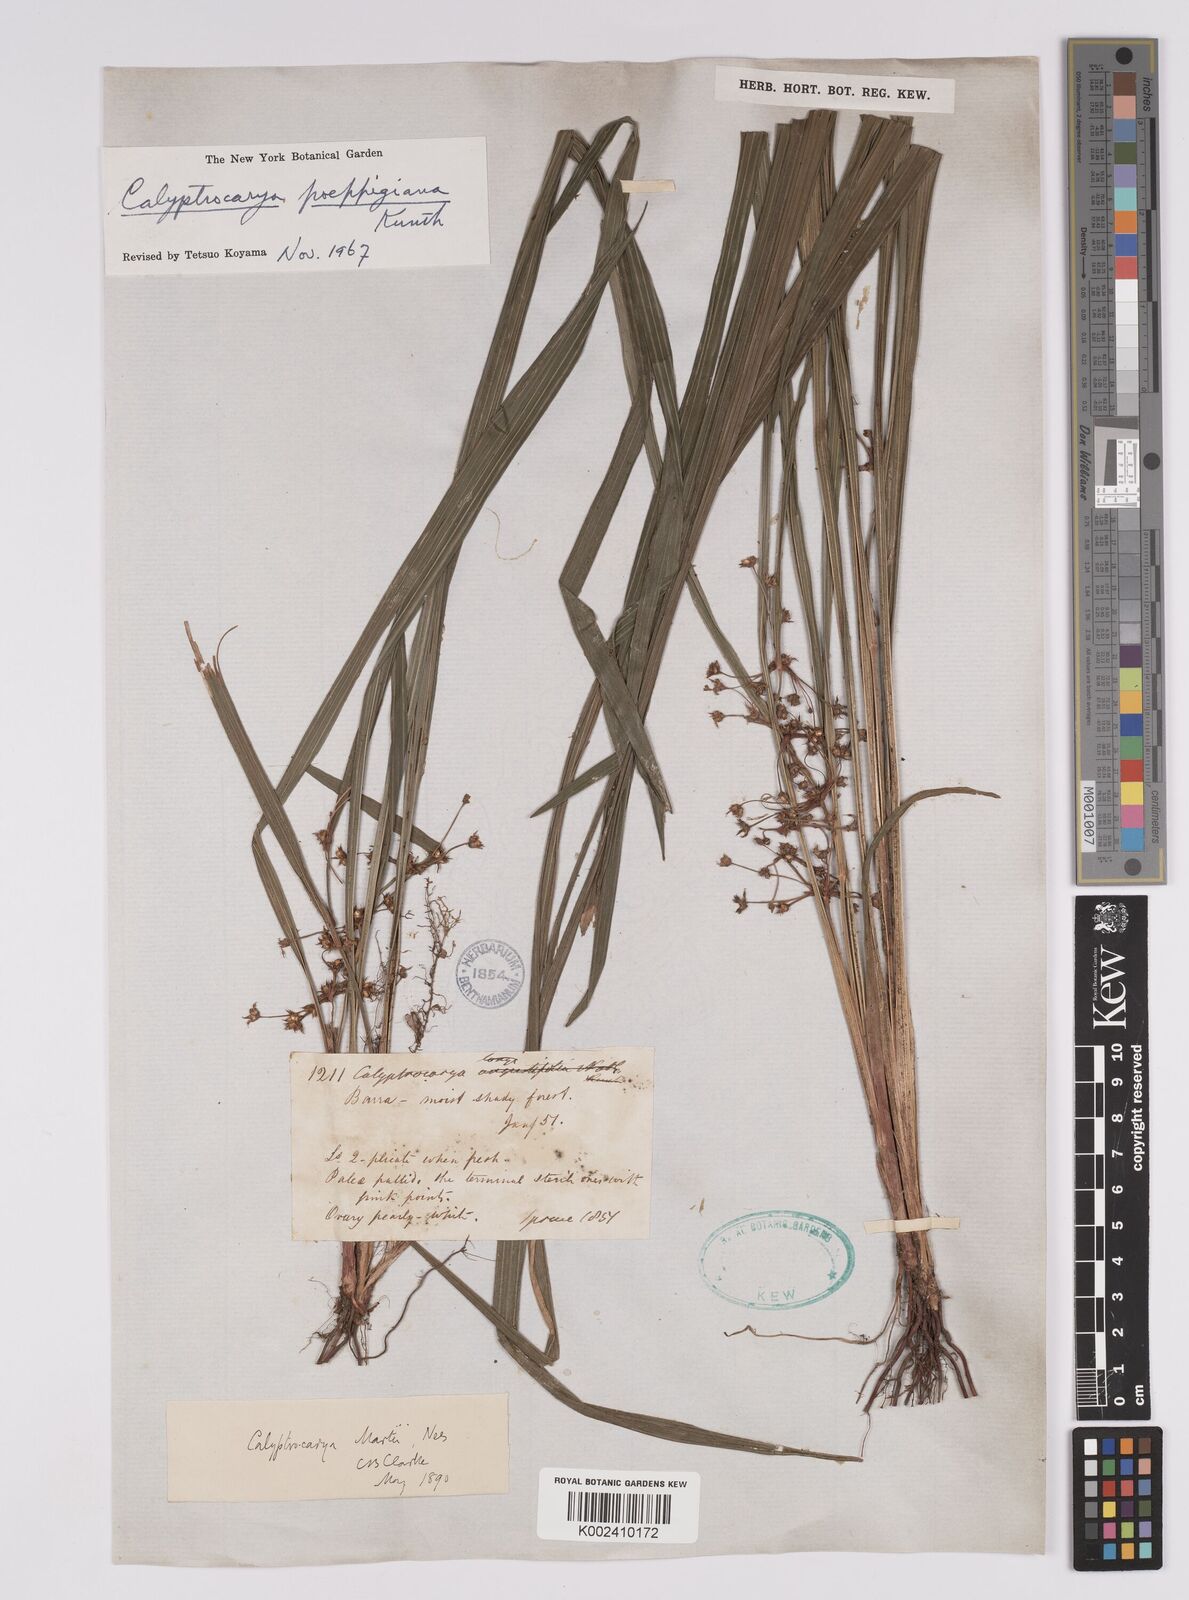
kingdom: Plantae
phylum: Tracheophyta
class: Liliopsida
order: Poales
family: Cyperaceae
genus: Calyptrocarya
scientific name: Calyptrocarya poeppigiana
